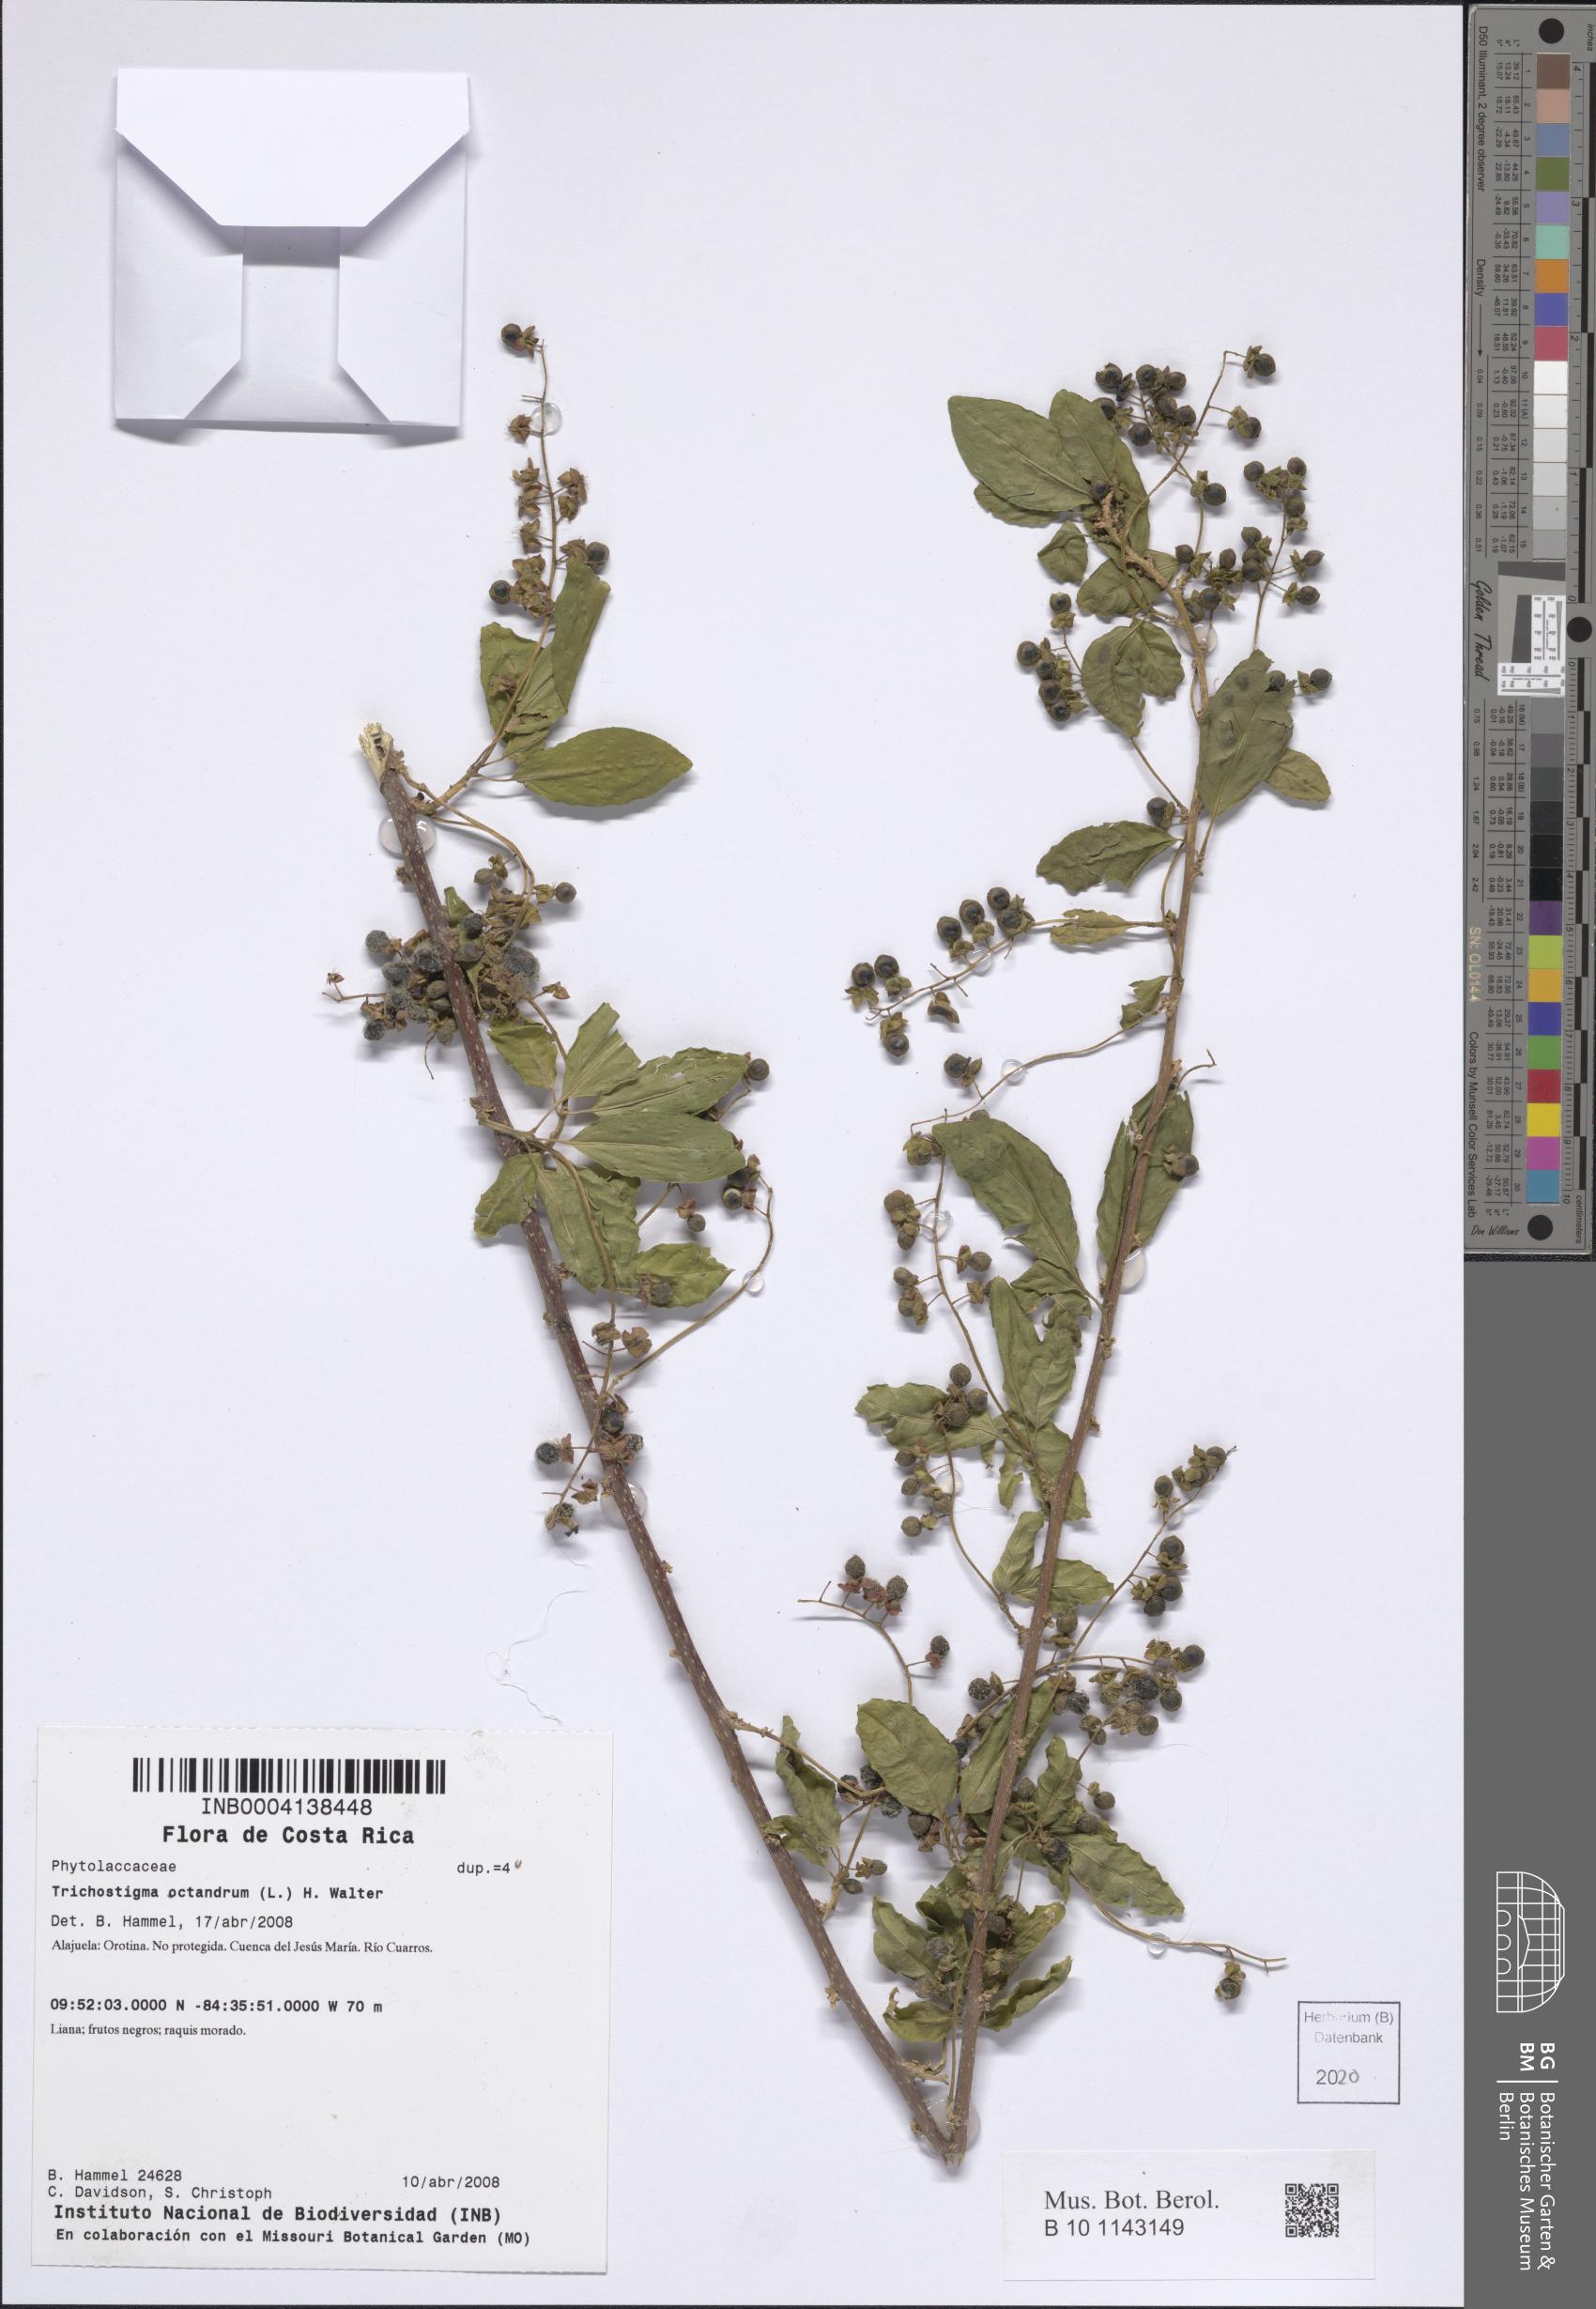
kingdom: Plantae
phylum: Tracheophyta
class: Magnoliopsida
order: Caryophyllales
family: Phytolaccaceae
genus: Trichostigma
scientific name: Trichostigma octandrum
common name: Basket wiss
